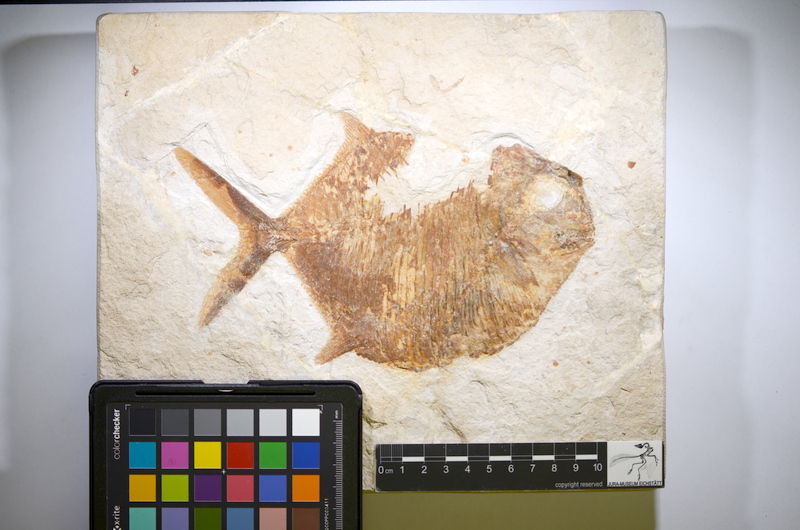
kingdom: Animalia
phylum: Chordata
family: Gyrodontidae
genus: Gyrodus
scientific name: Gyrodus hexagonus
